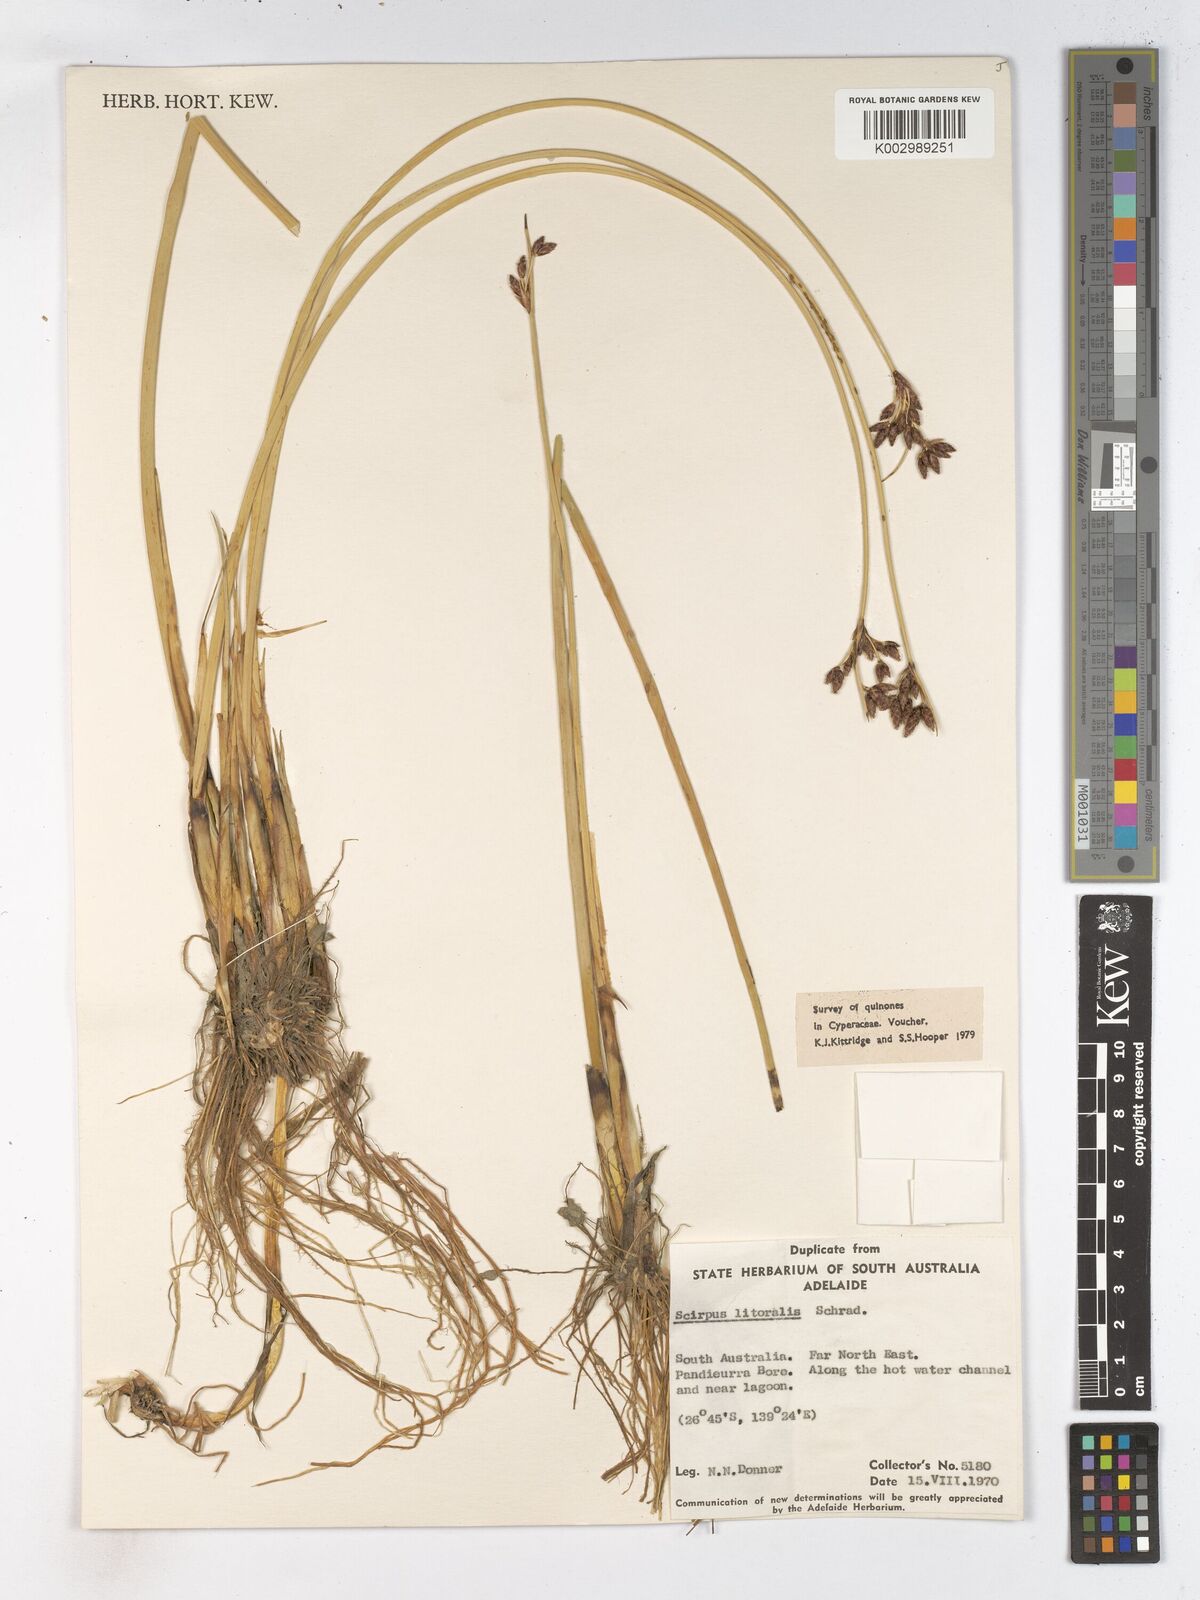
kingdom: Plantae
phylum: Tracheophyta
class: Liliopsida
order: Poales
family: Cyperaceae
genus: Schoenoplectus
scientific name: Schoenoplectus litoralis
